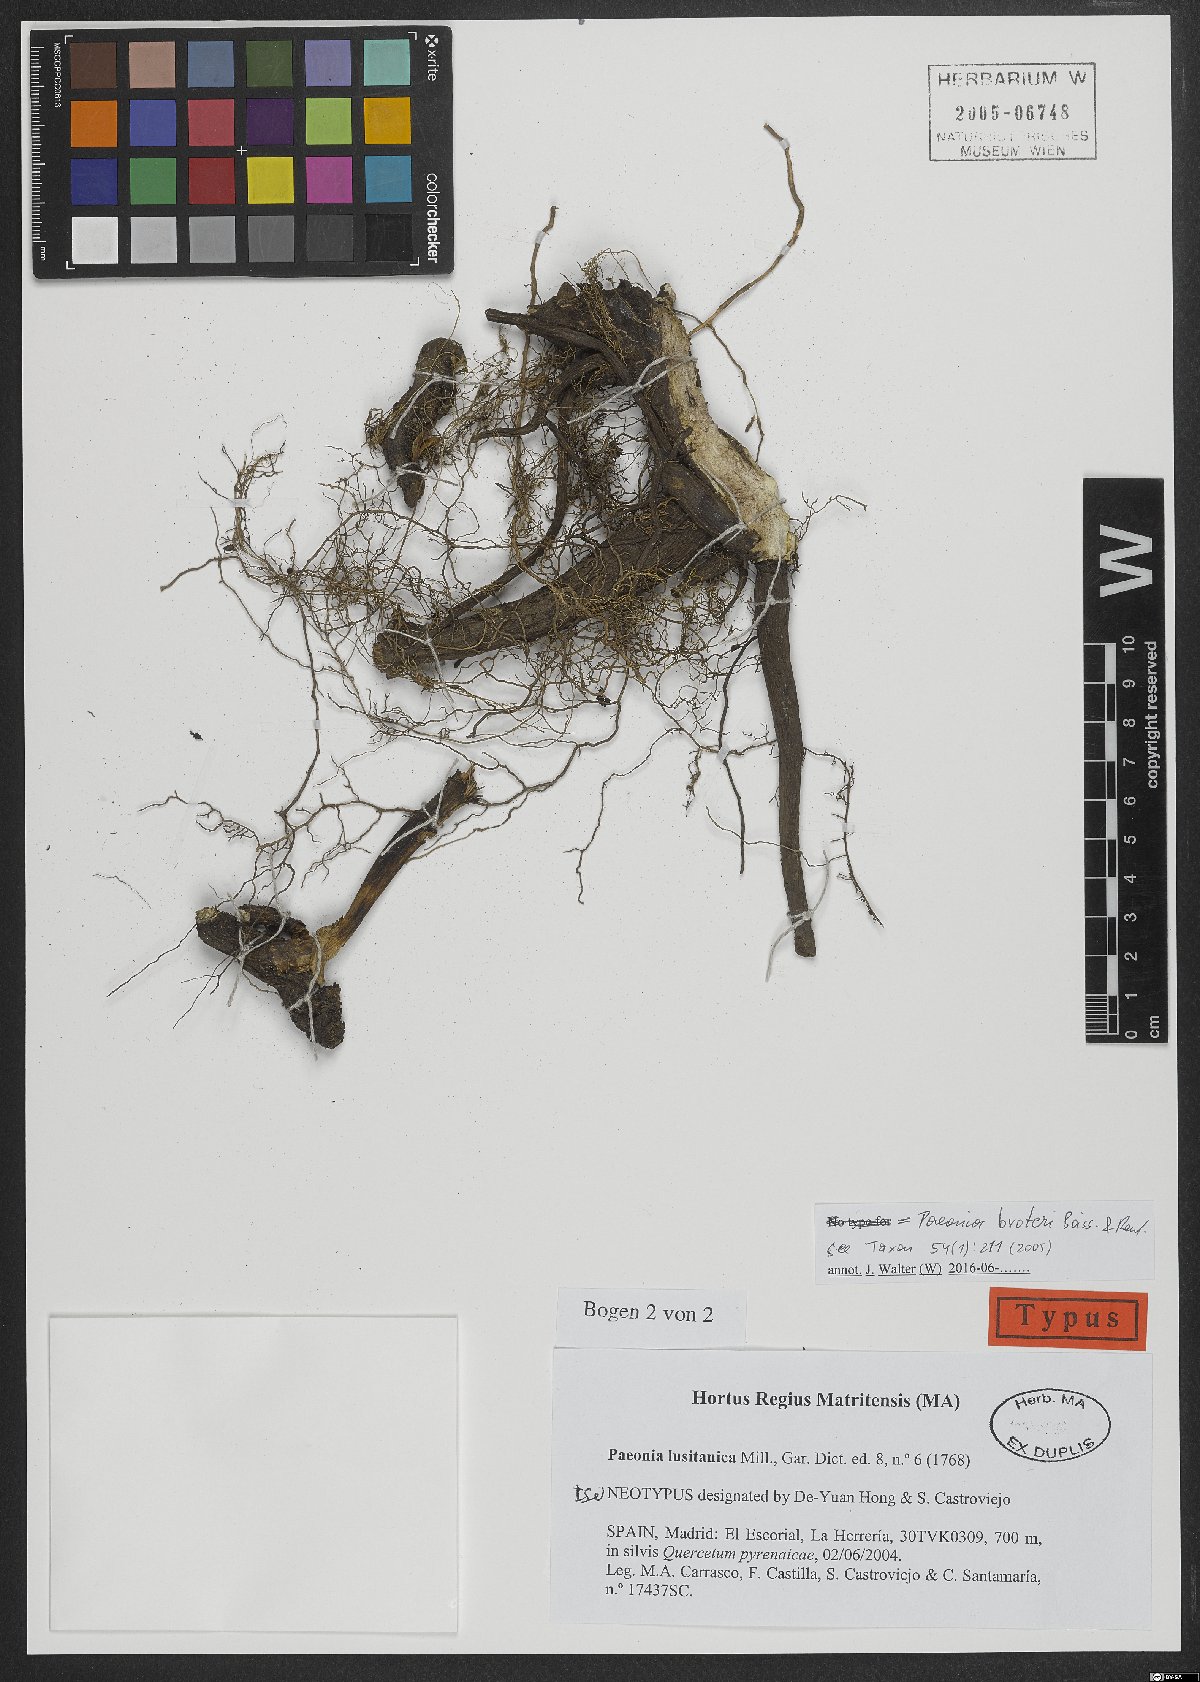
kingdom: Plantae
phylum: Tracheophyta
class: Magnoliopsida
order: Saxifragales
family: Paeoniaceae
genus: Paeonia
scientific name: Paeonia broteroi
